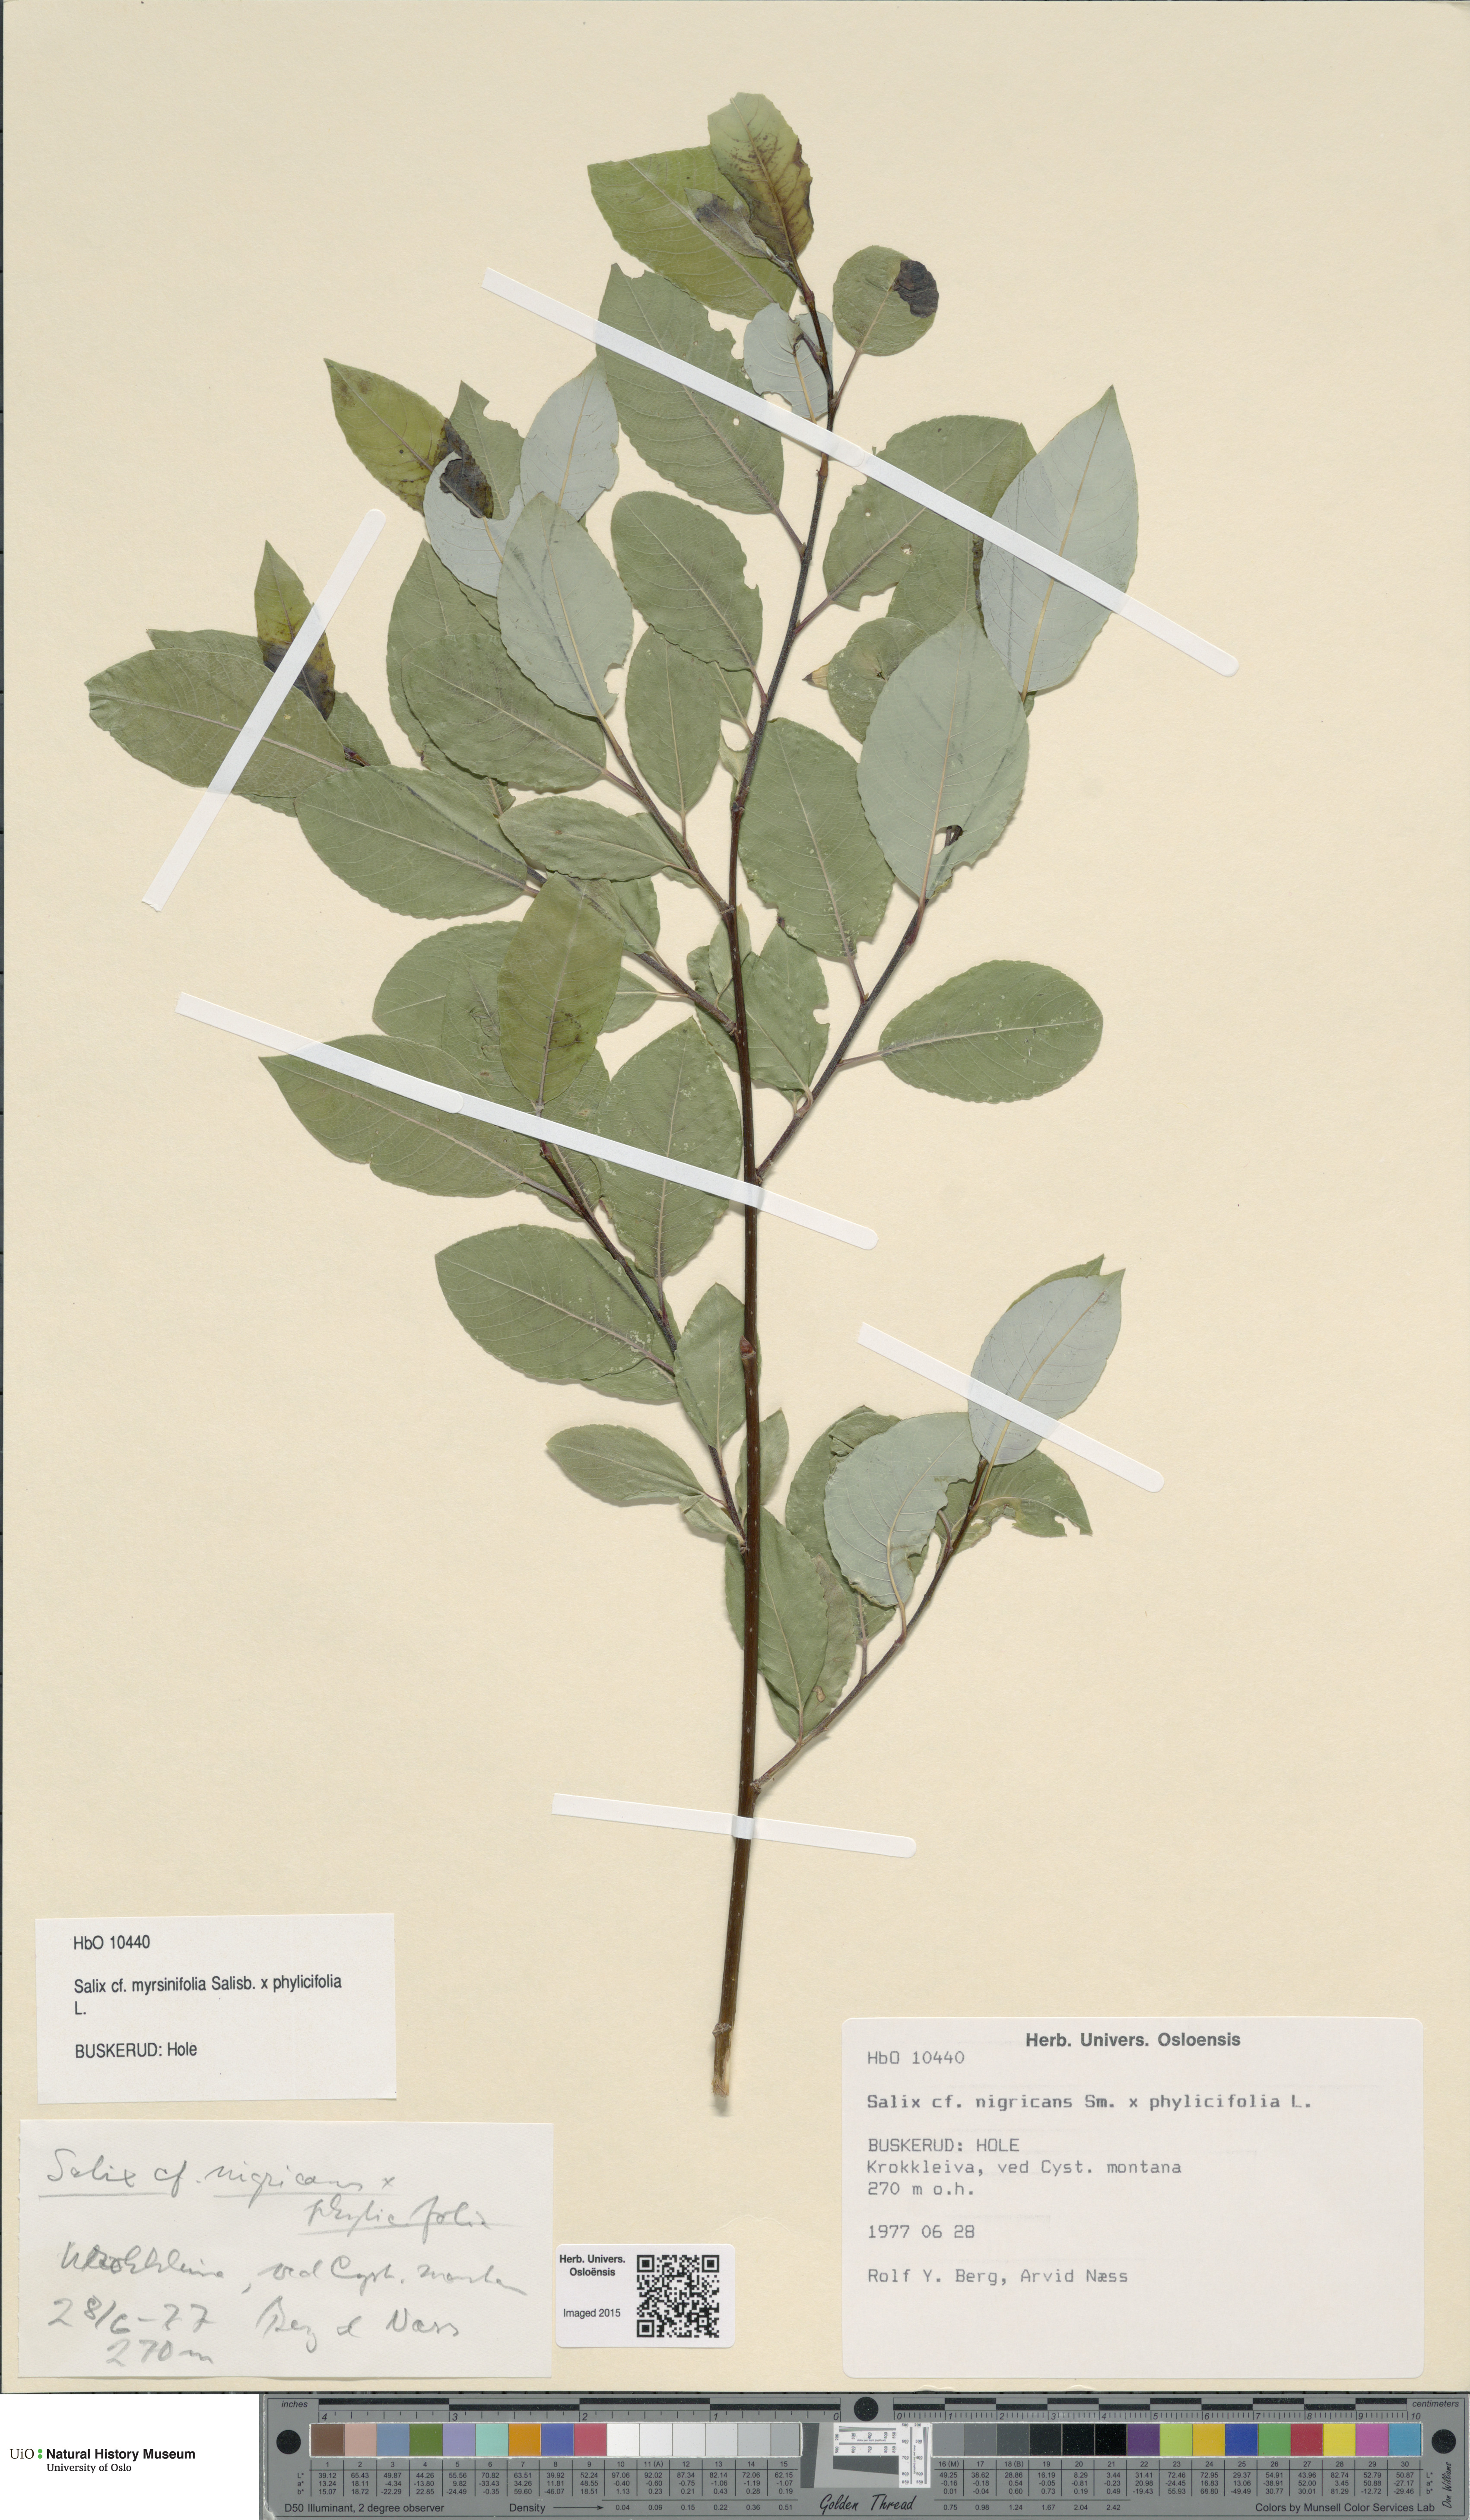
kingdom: Plantae
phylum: Tracheophyta
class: Magnoliopsida
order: Malpighiales
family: Salicaceae
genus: Salix
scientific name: Salix
